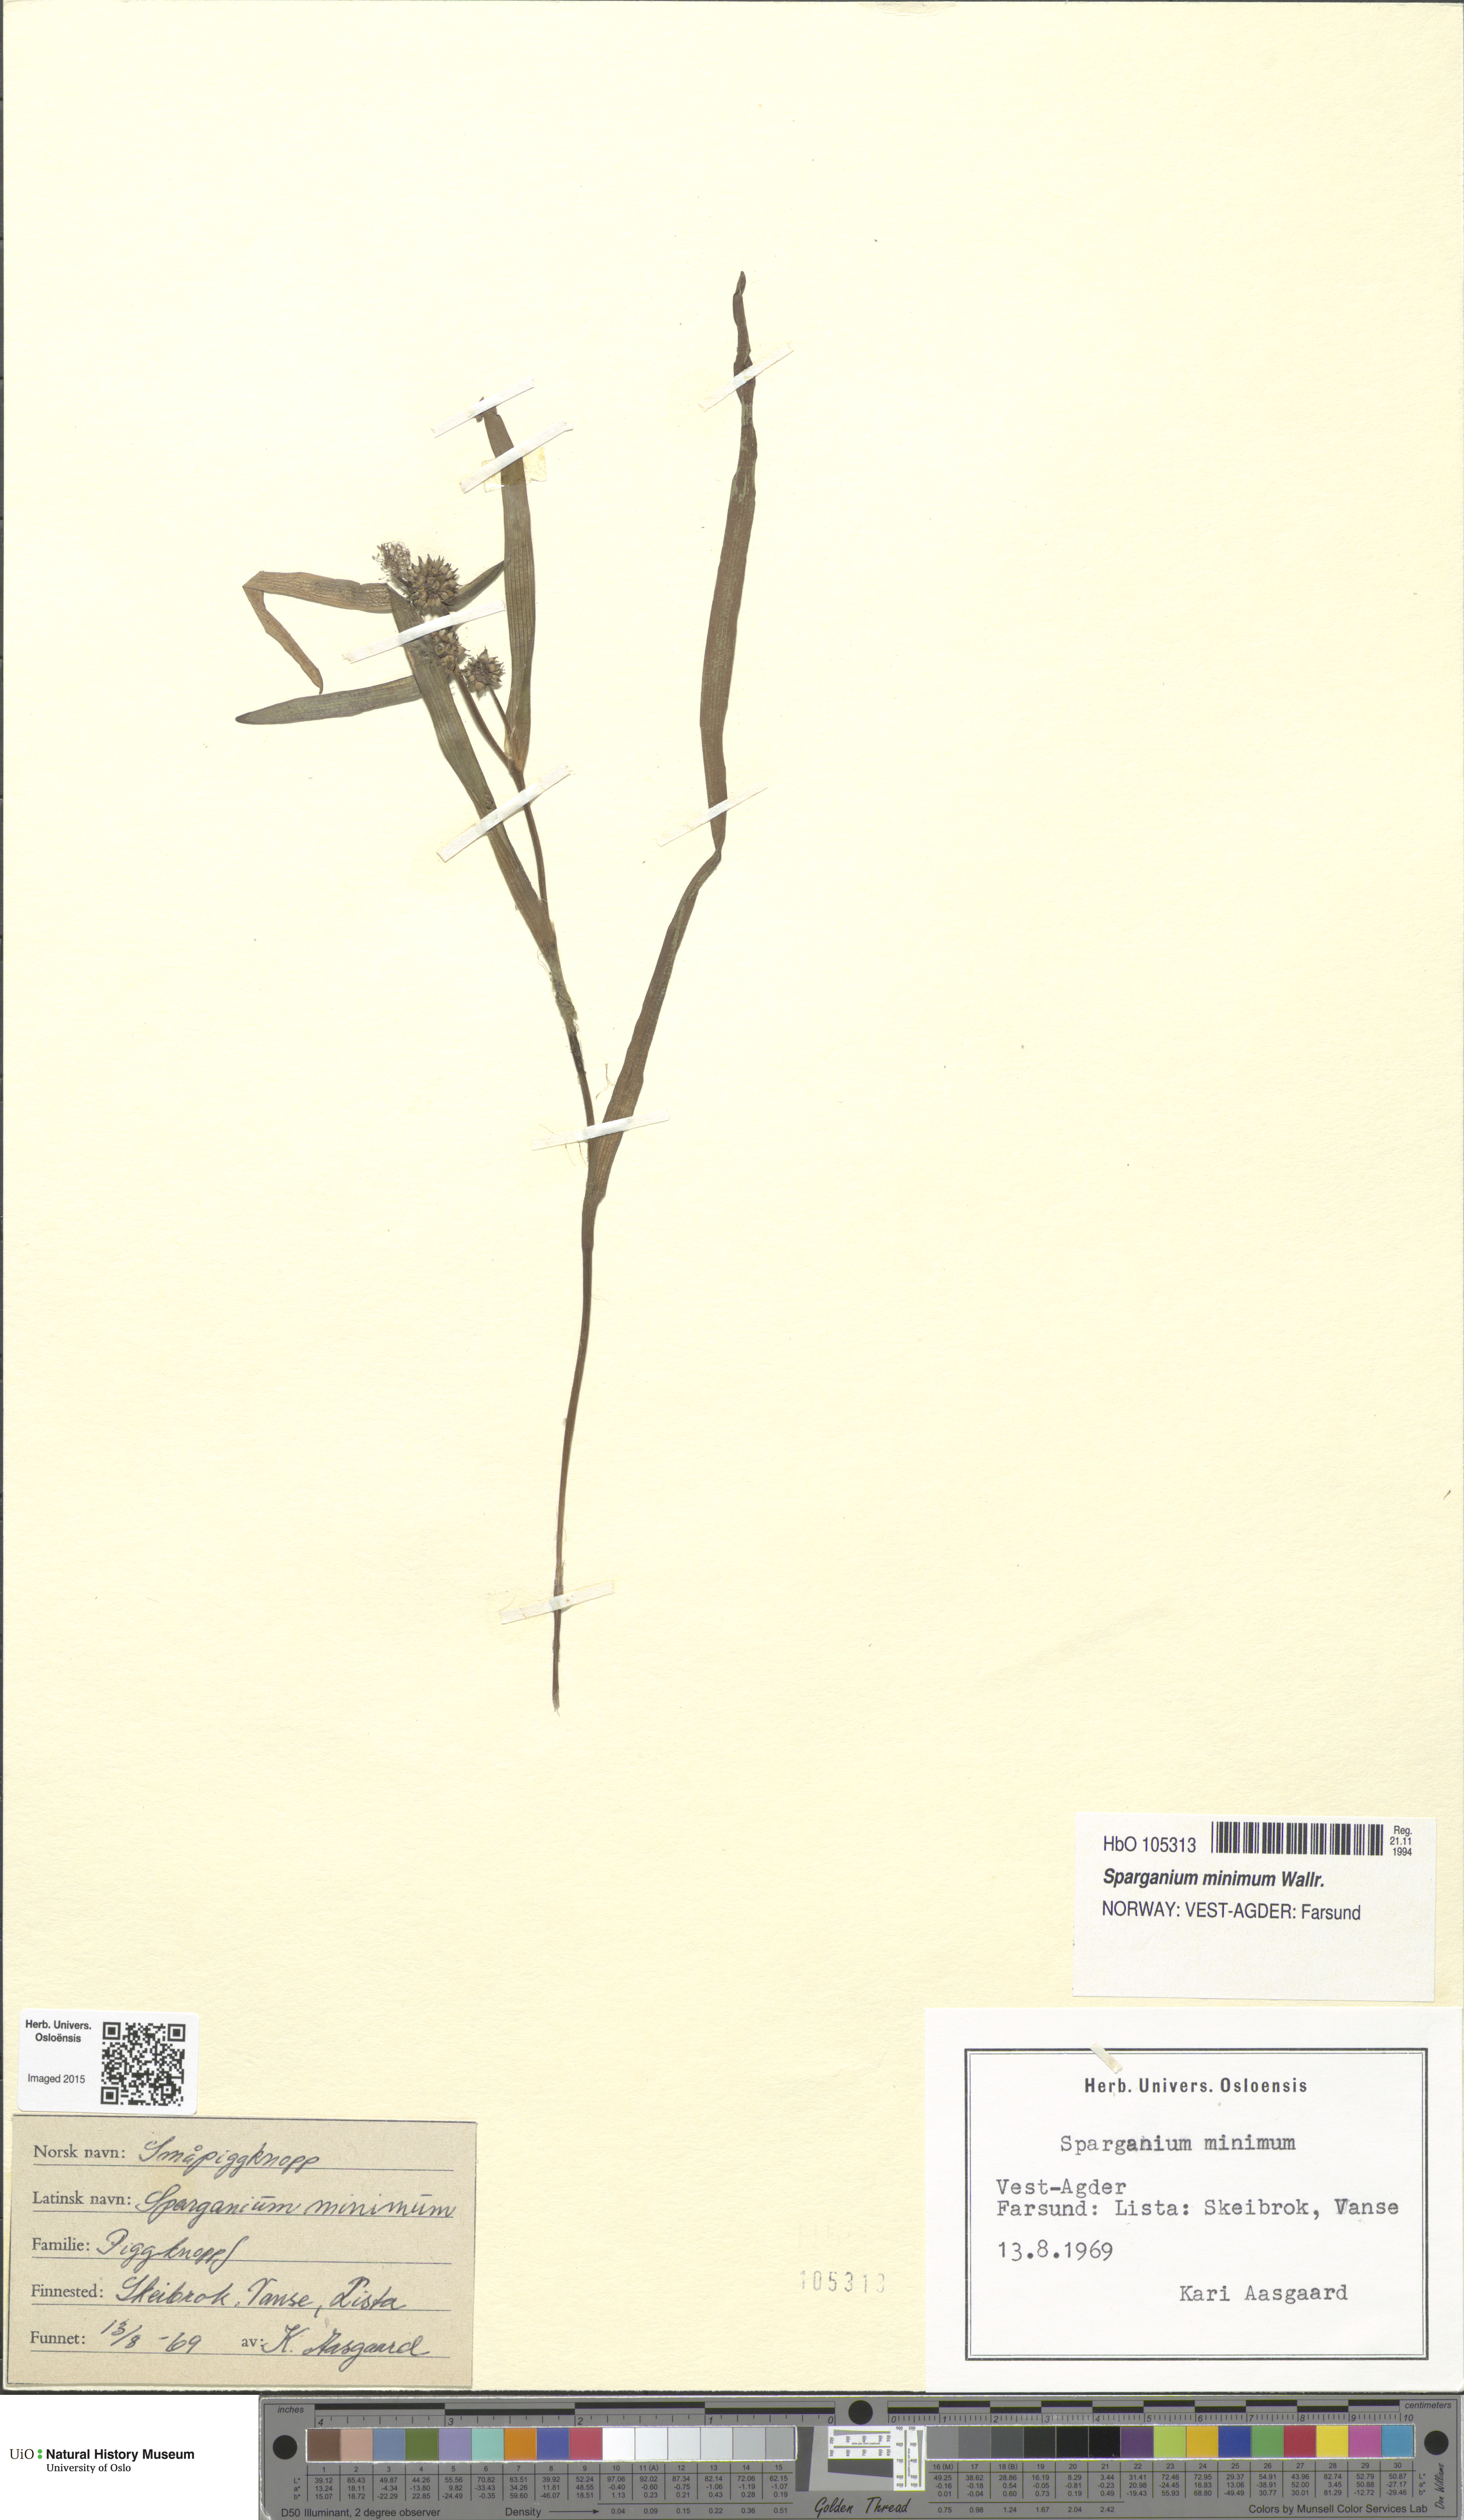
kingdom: Plantae
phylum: Tracheophyta
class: Liliopsida
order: Poales
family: Typhaceae
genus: Sparganium
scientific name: Sparganium natans
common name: Least bur-reed
